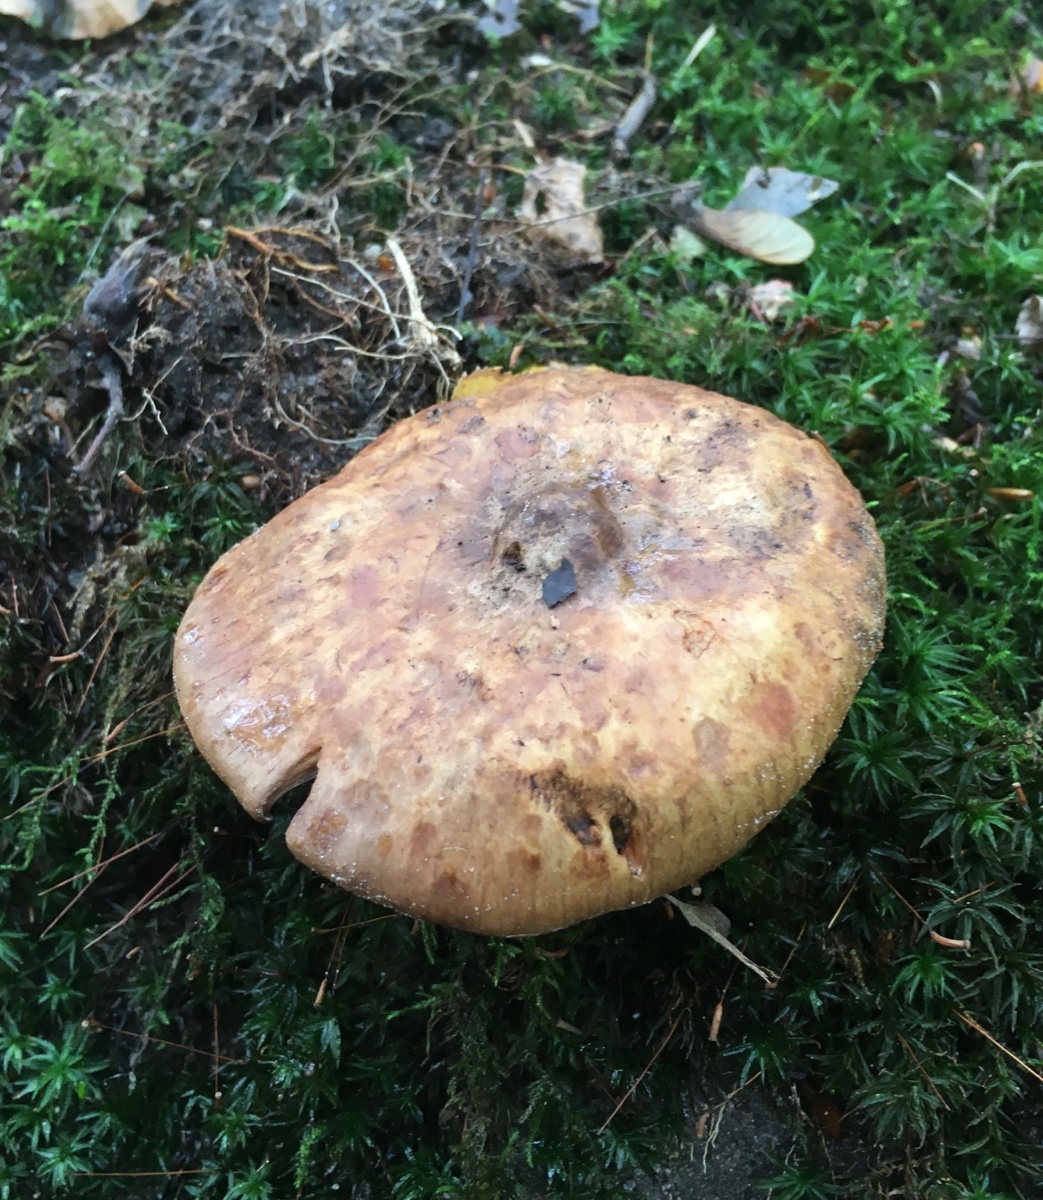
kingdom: Fungi
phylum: Basidiomycota
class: Agaricomycetes
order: Boletales
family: Paxillaceae
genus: Paxillus
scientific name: Paxillus involutus
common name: almindelig netbladhat
